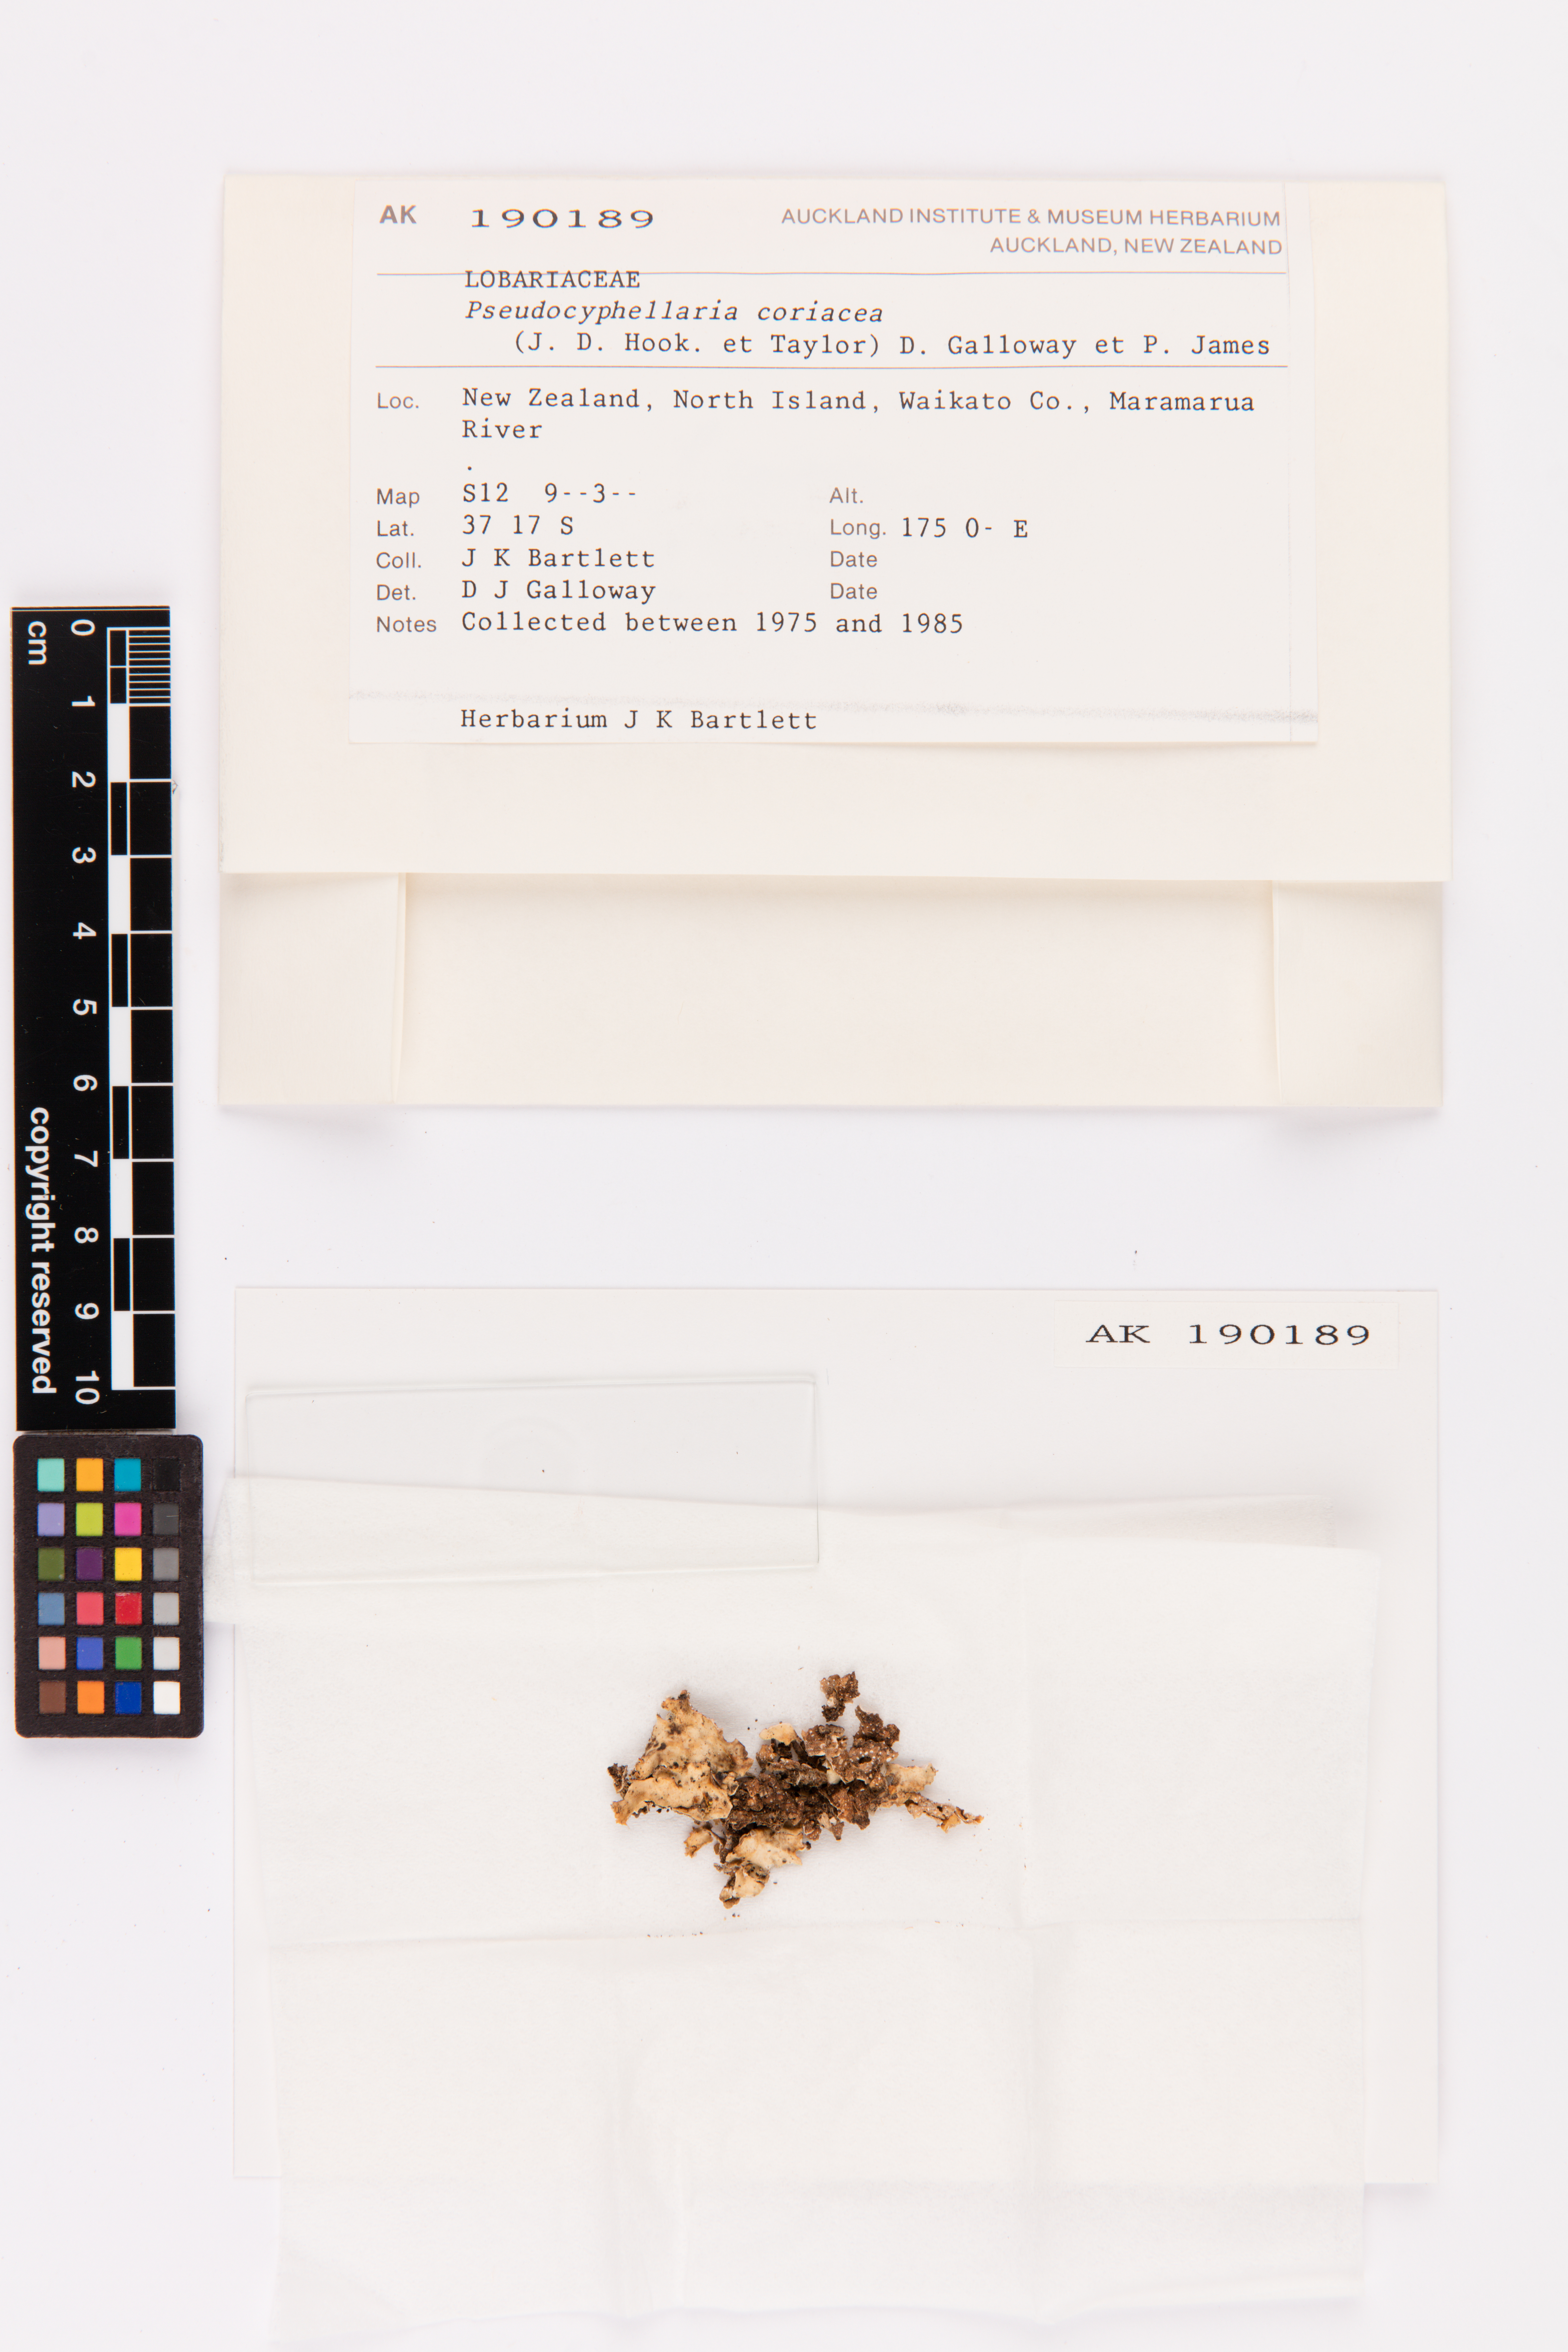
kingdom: Fungi
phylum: Ascomycota
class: Lecanoromycetes
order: Peltigerales
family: Lobariaceae
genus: Pseudocyphellaria
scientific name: Pseudocyphellaria coriacea
